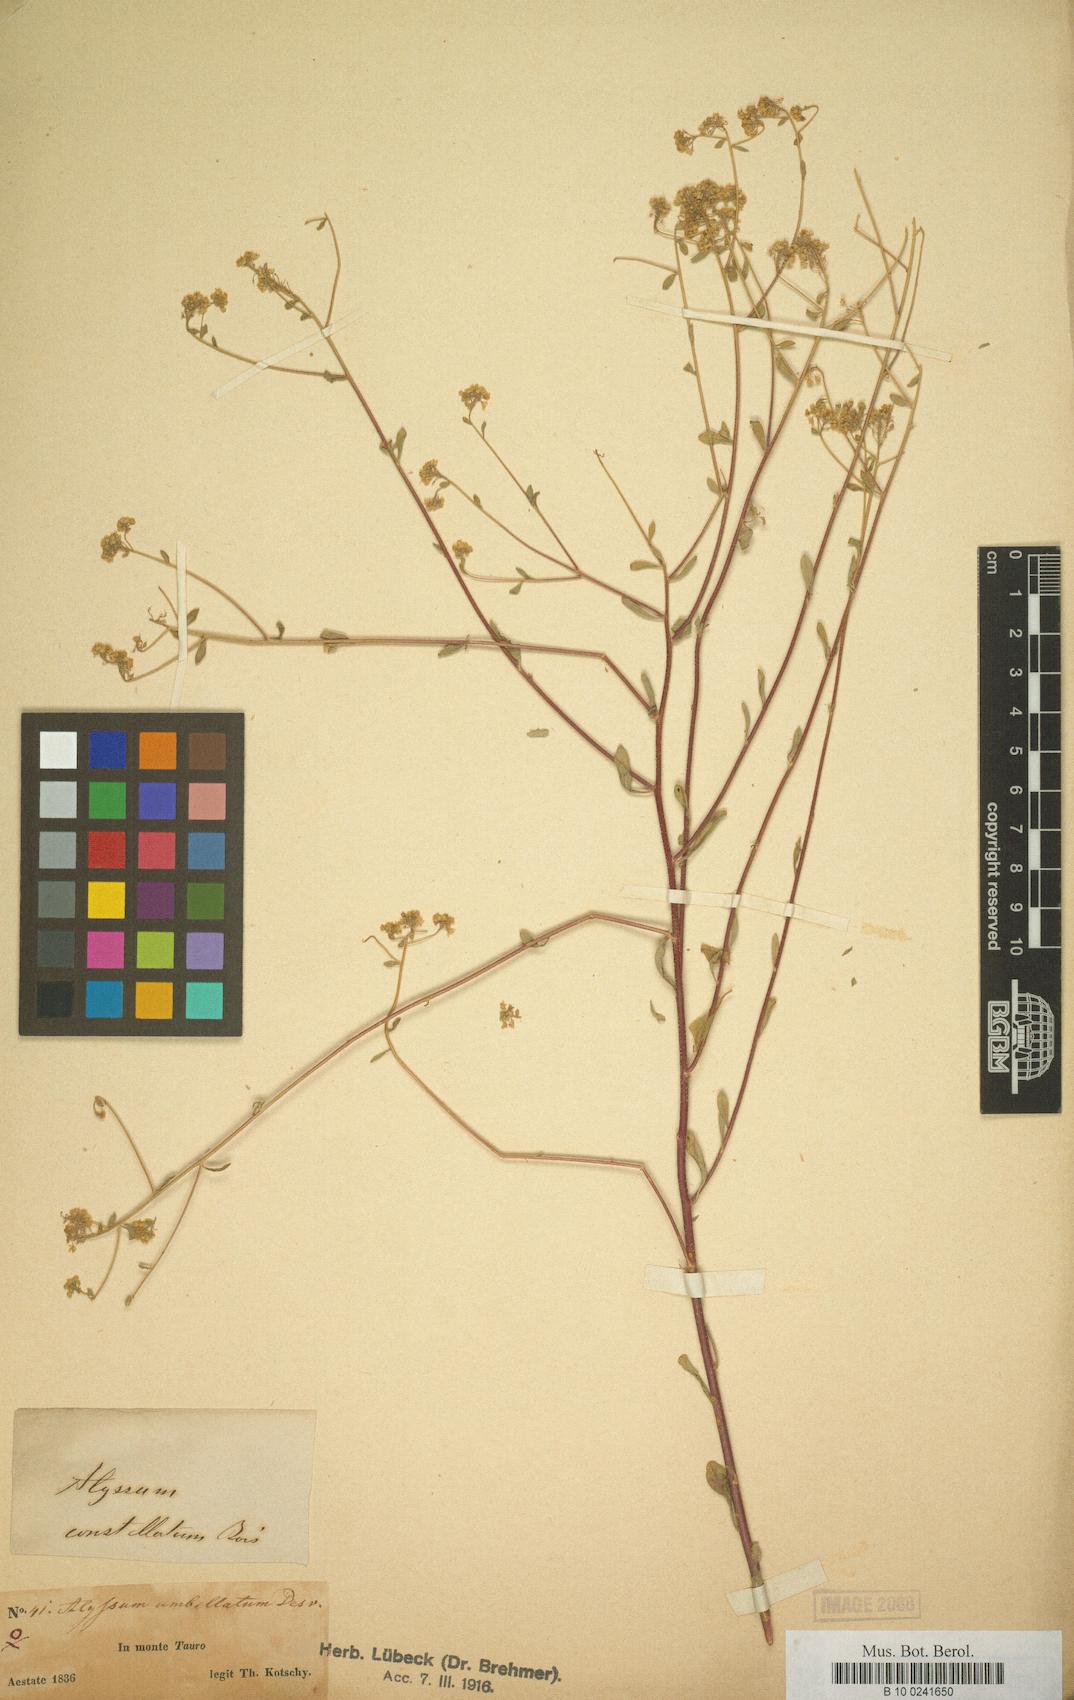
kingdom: Plantae
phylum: Tracheophyta
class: Magnoliopsida
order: Brassicales
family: Brassicaceae
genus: Odontarrhena
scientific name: Odontarrhena constellata
